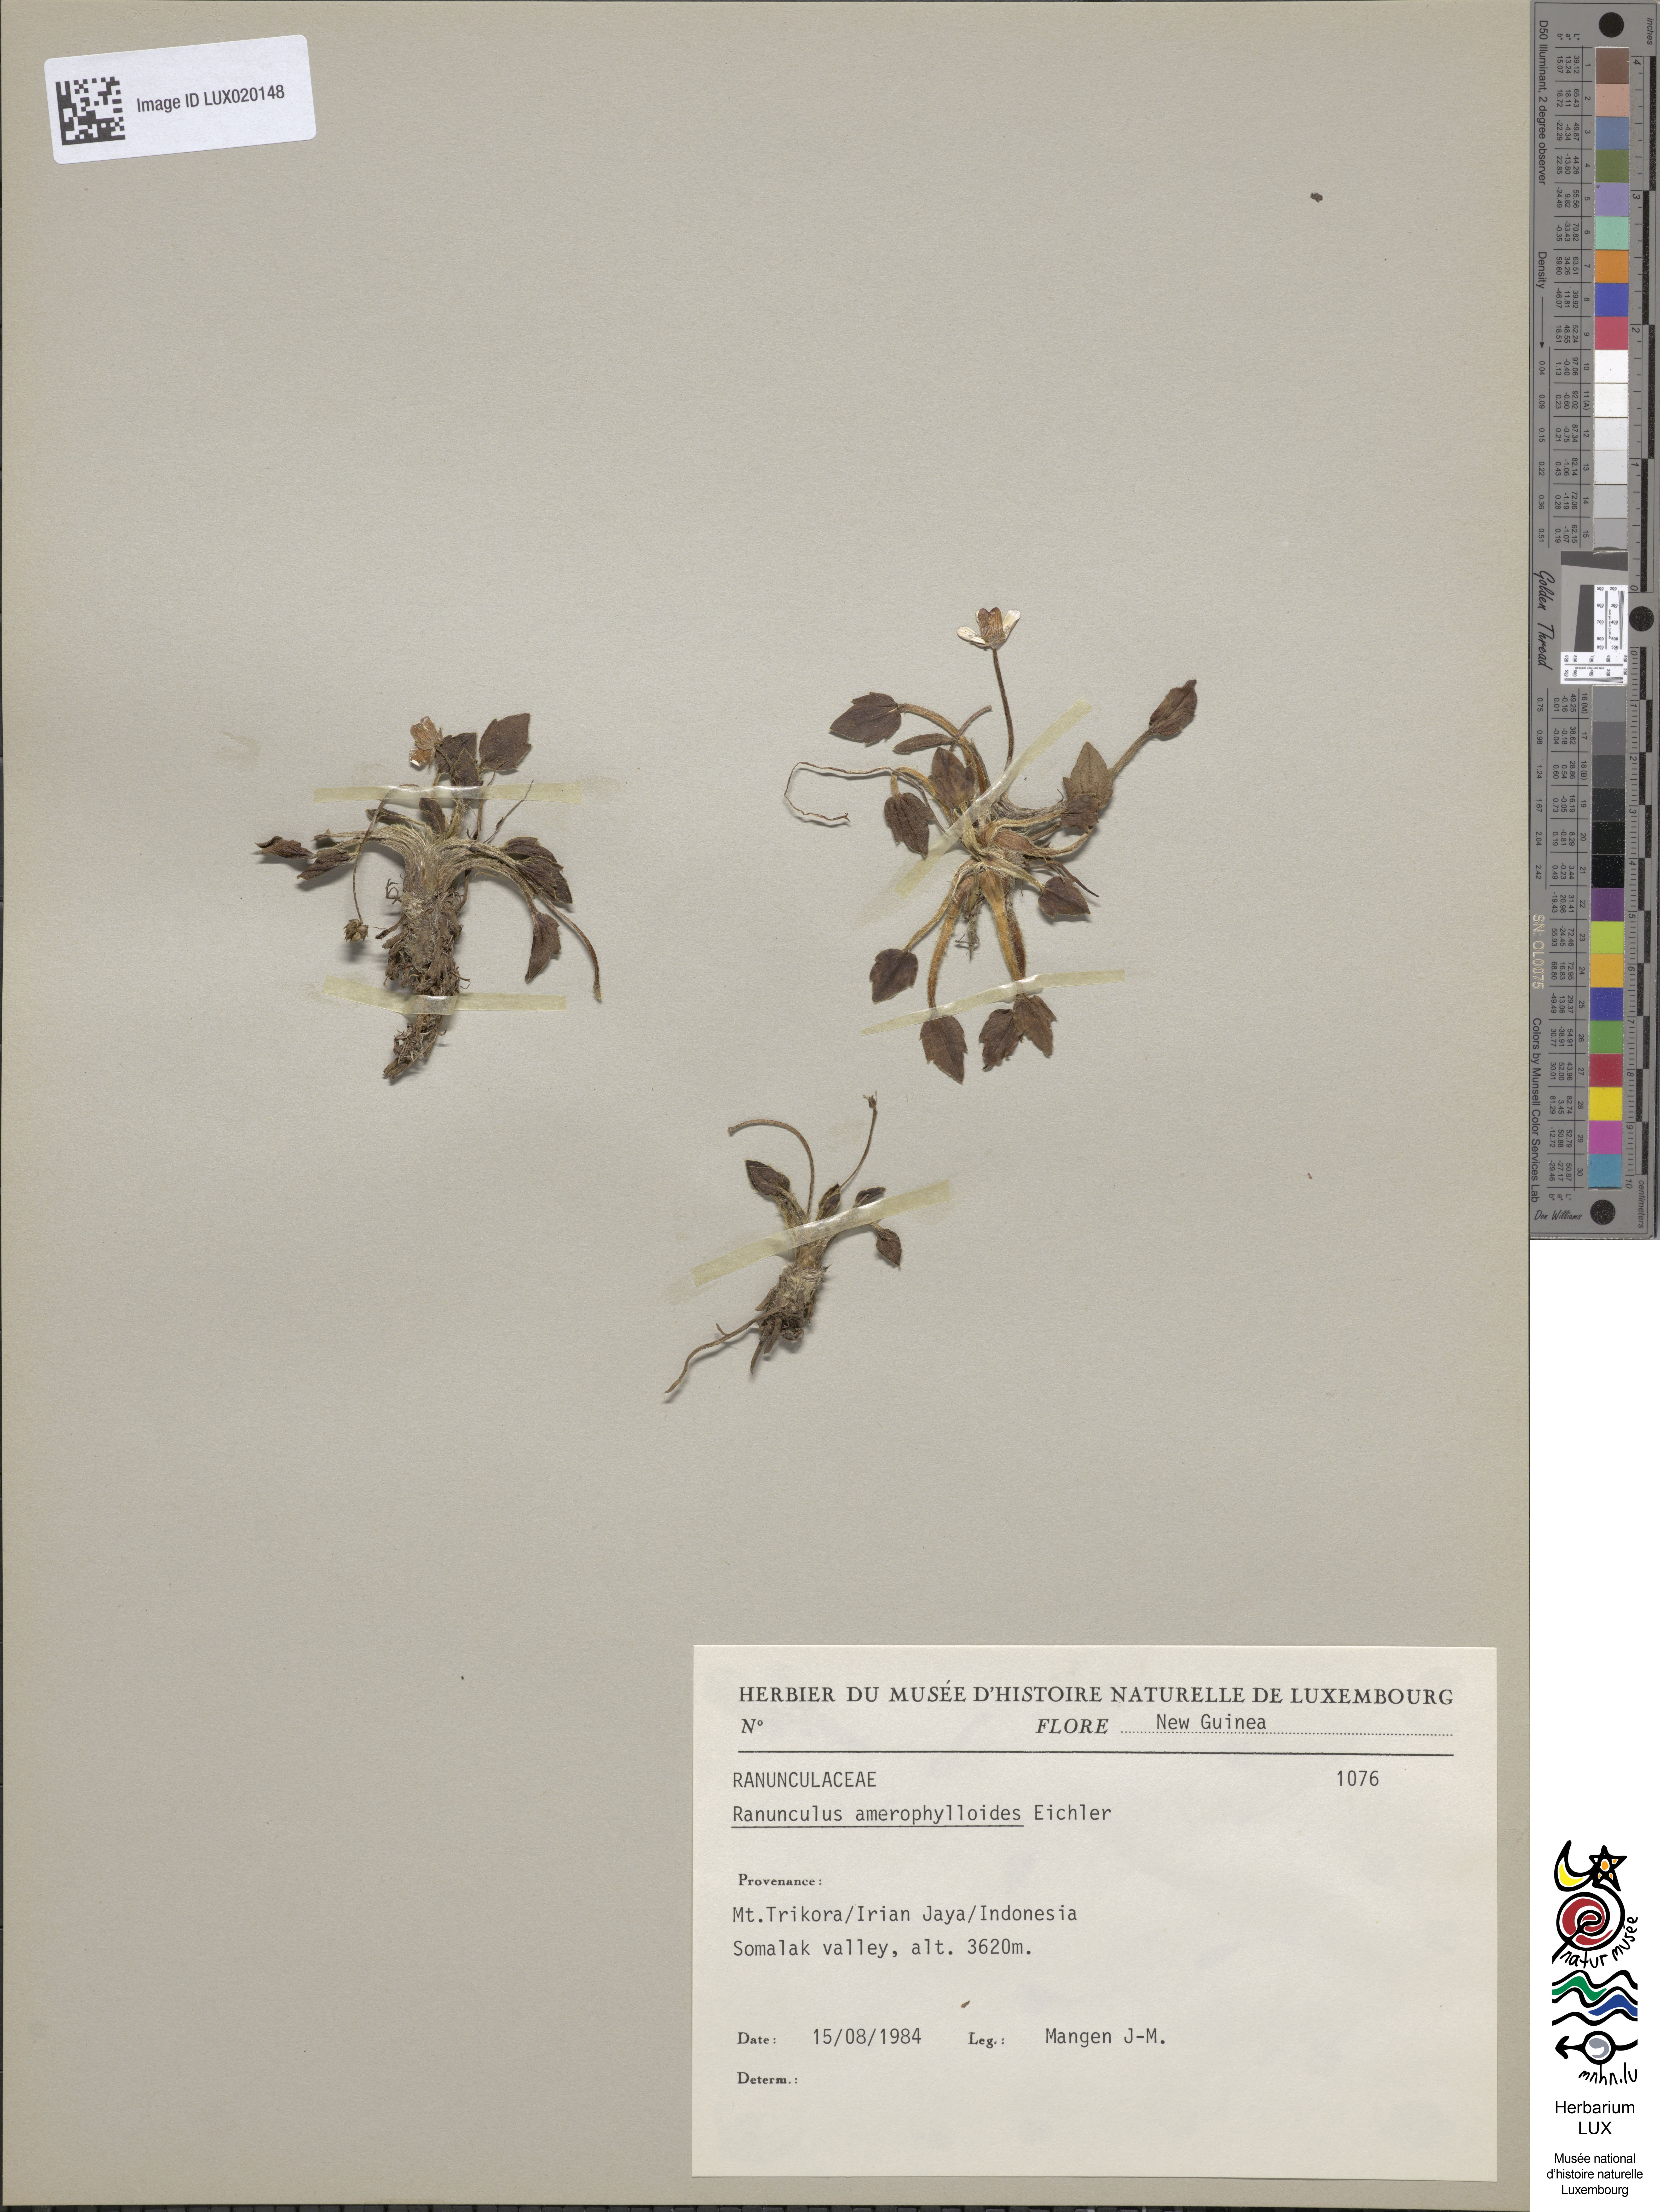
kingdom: Plantae
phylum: Tracheophyta
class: Magnoliopsida
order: Ranunculales
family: Ranunculaceae
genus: Ranunculus
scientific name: Ranunculus amerophylloides
